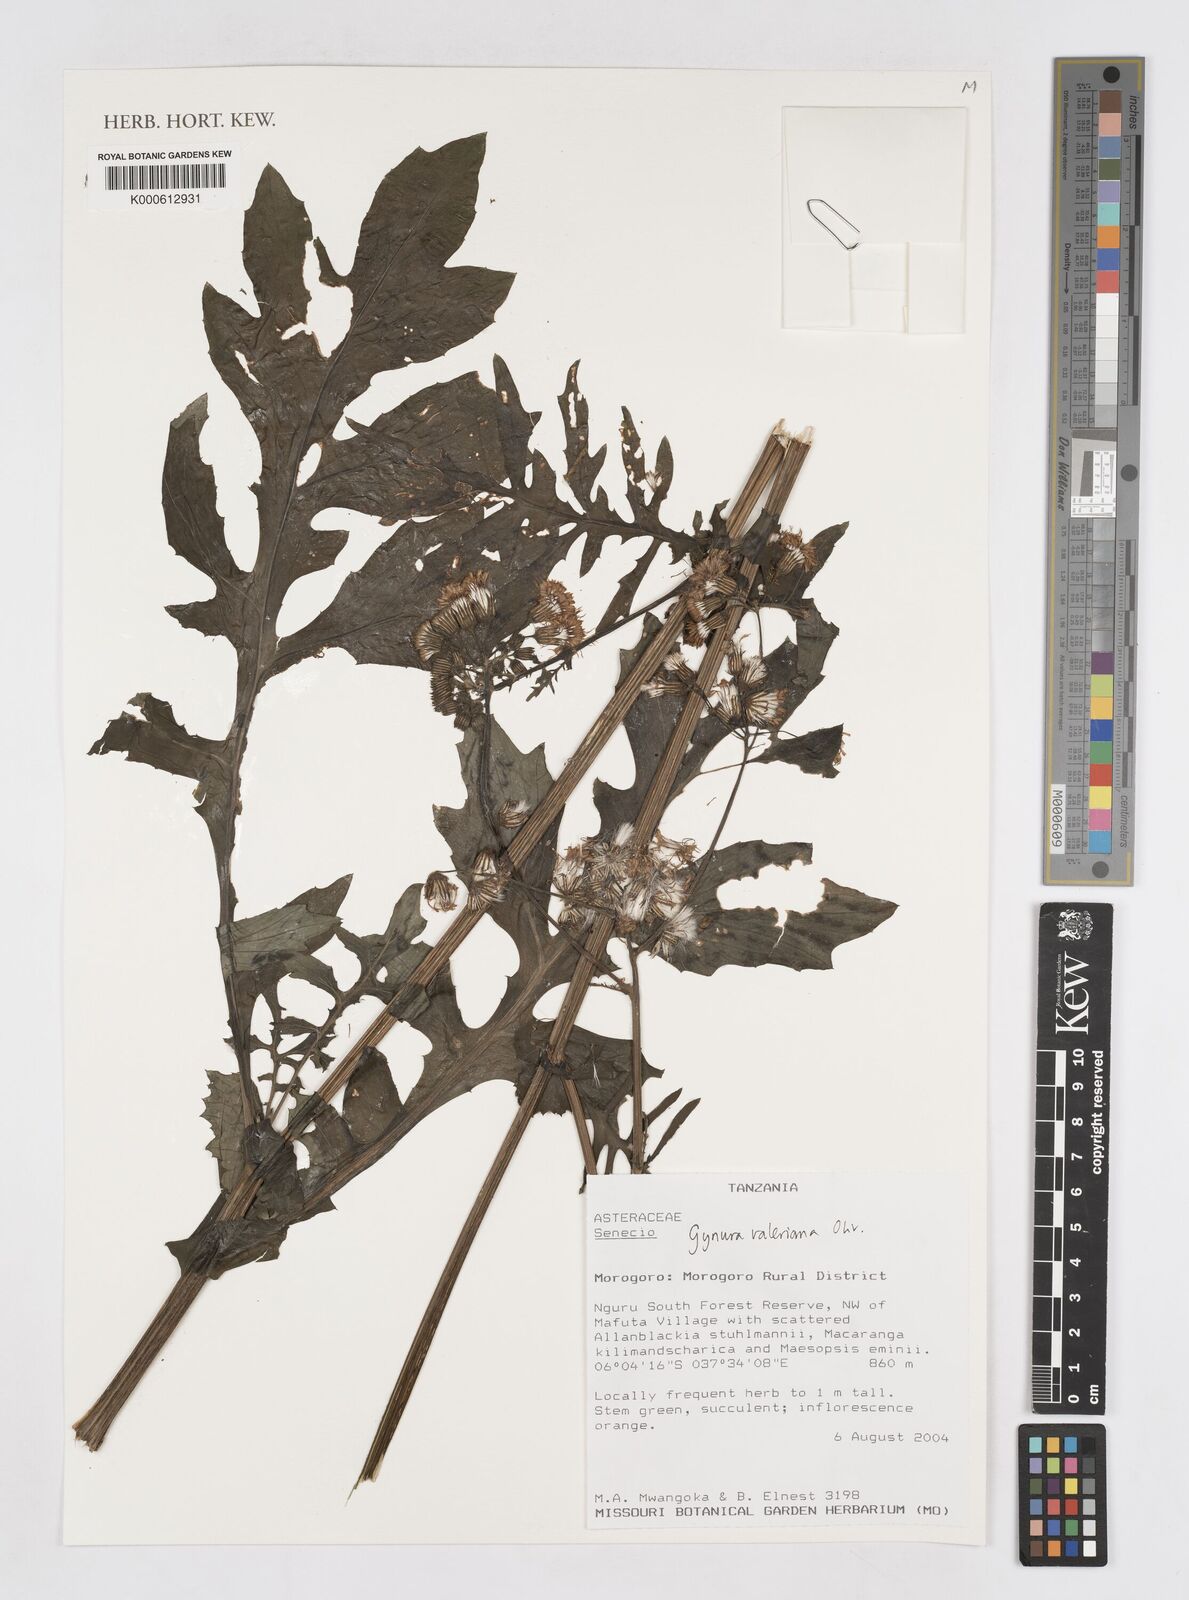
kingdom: Plantae
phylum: Tracheophyta
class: Magnoliopsida
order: Asterales
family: Asteraceae
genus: Gynura
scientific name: Gynura valeriana
